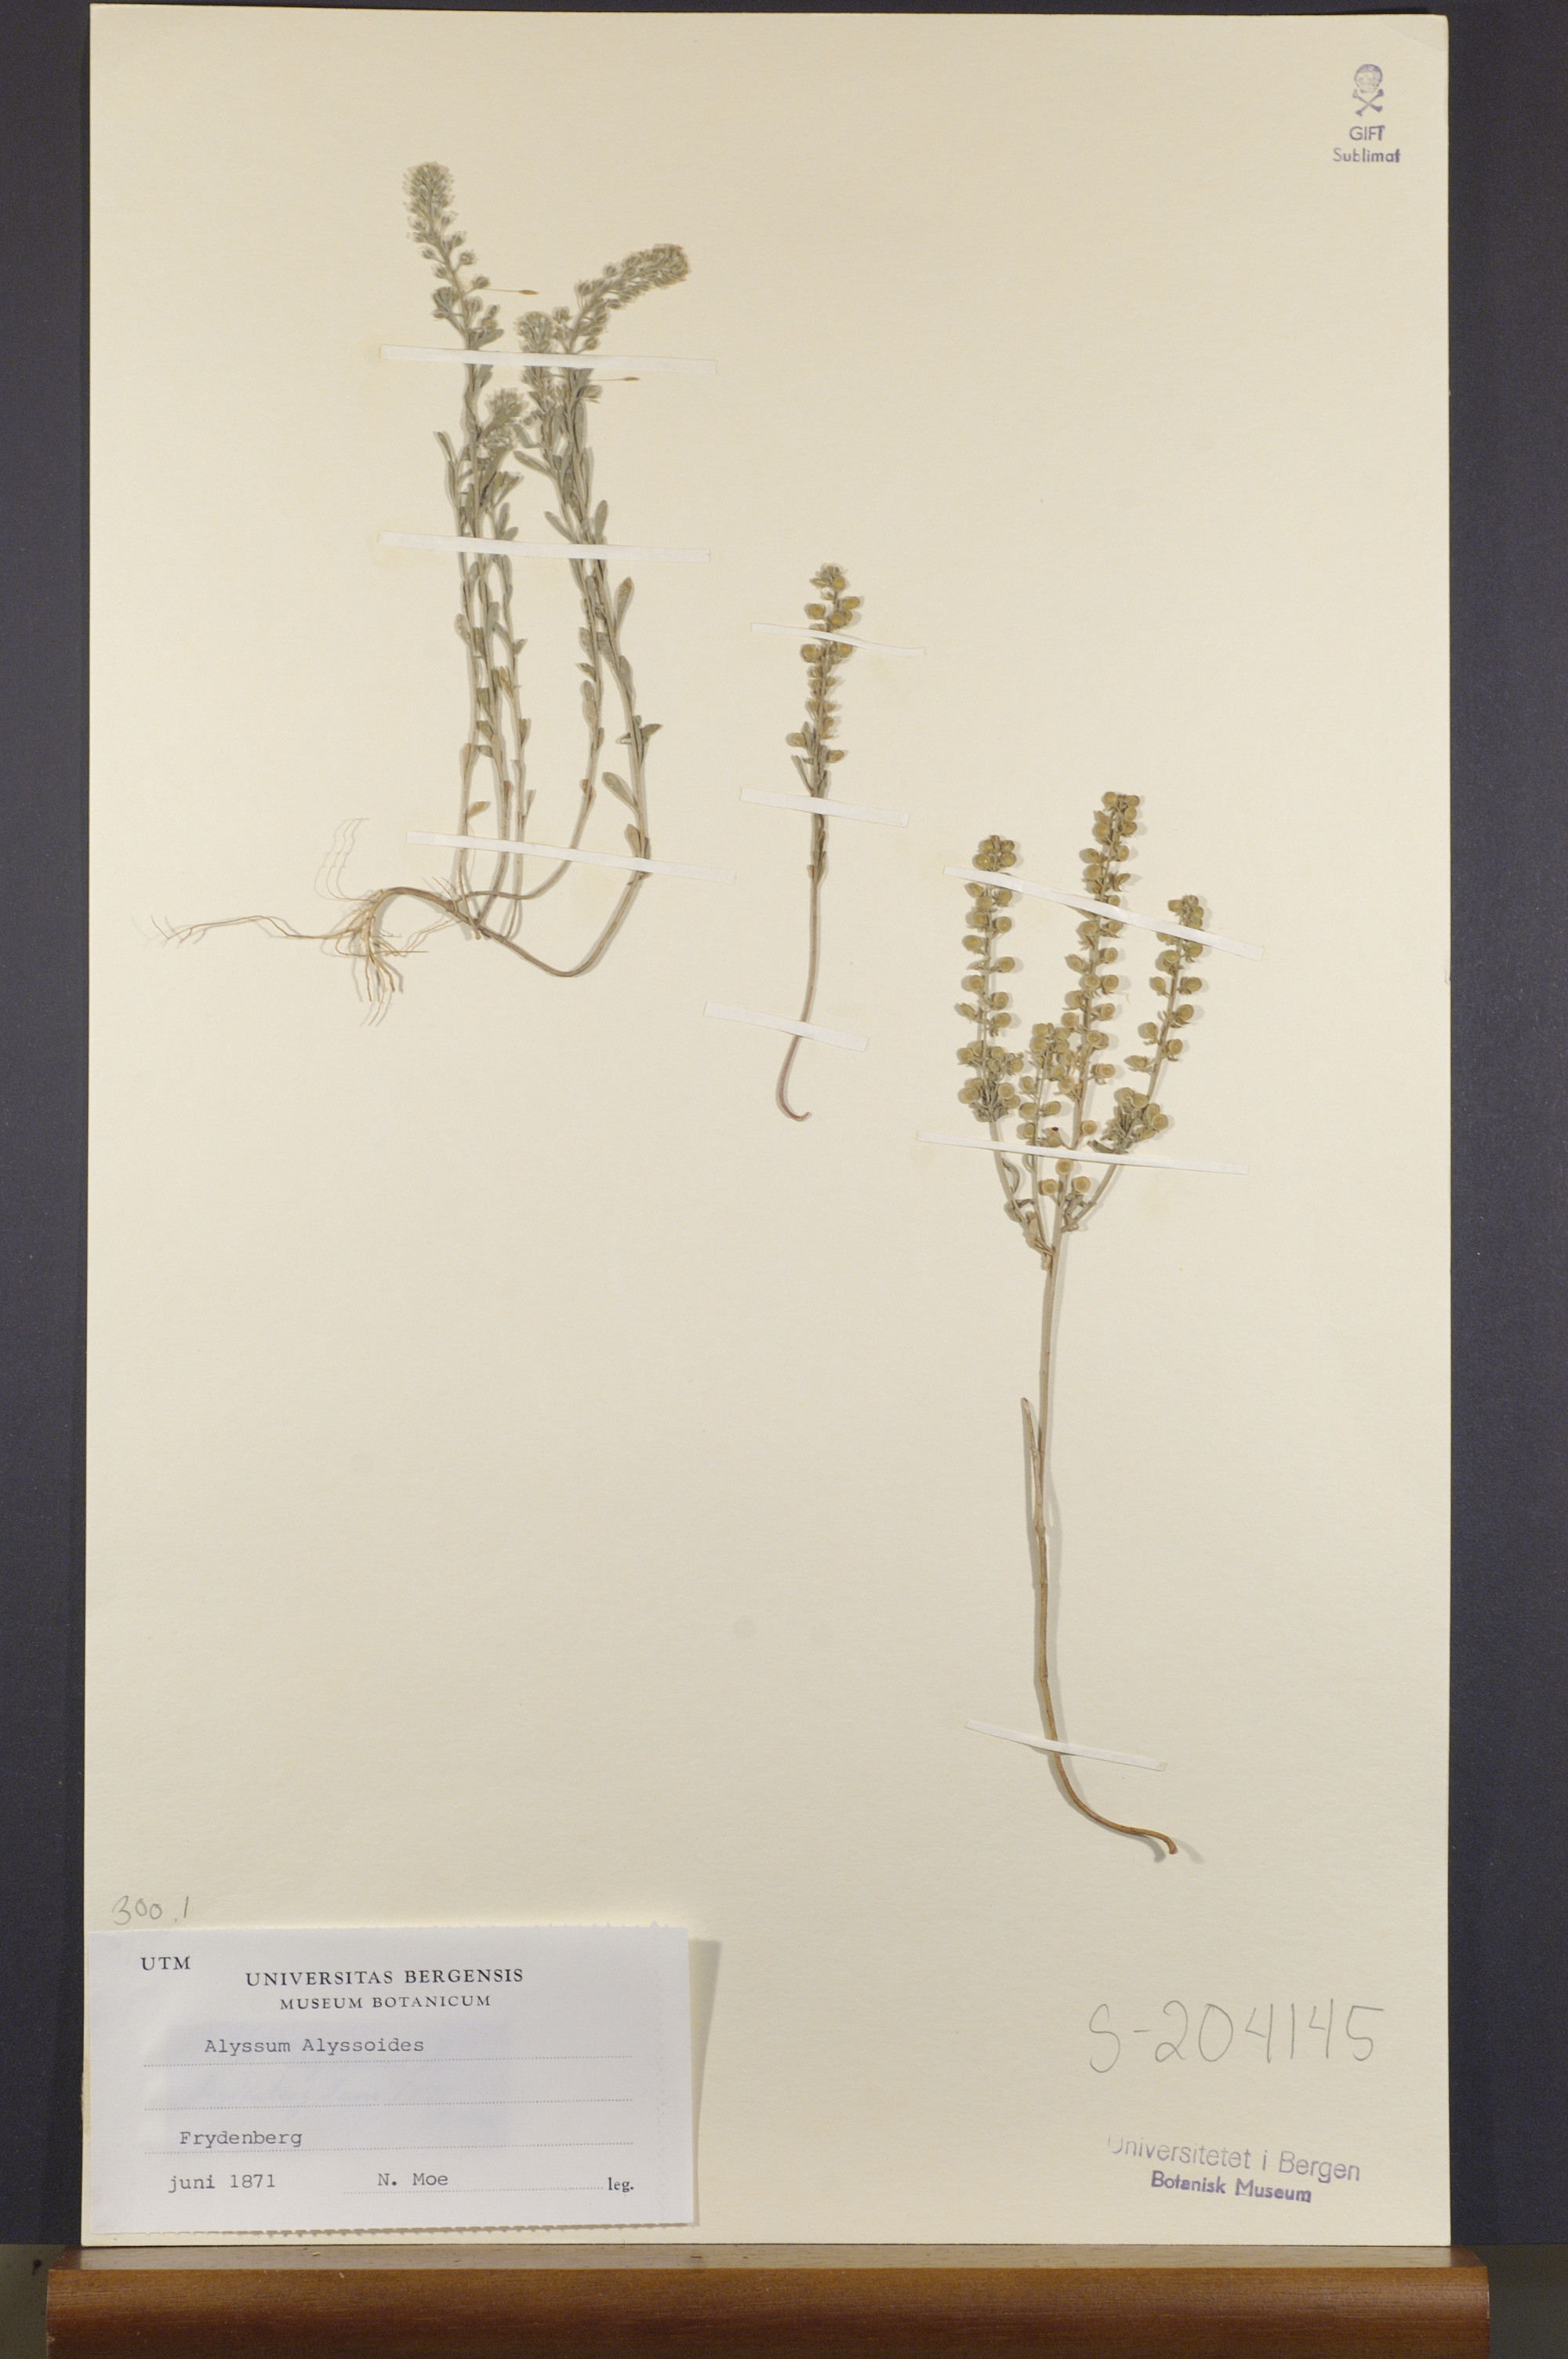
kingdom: Plantae
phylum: Tracheophyta
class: Magnoliopsida
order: Brassicales
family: Brassicaceae
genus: Alyssum
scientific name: Alyssum alyssoides
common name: Small alison
